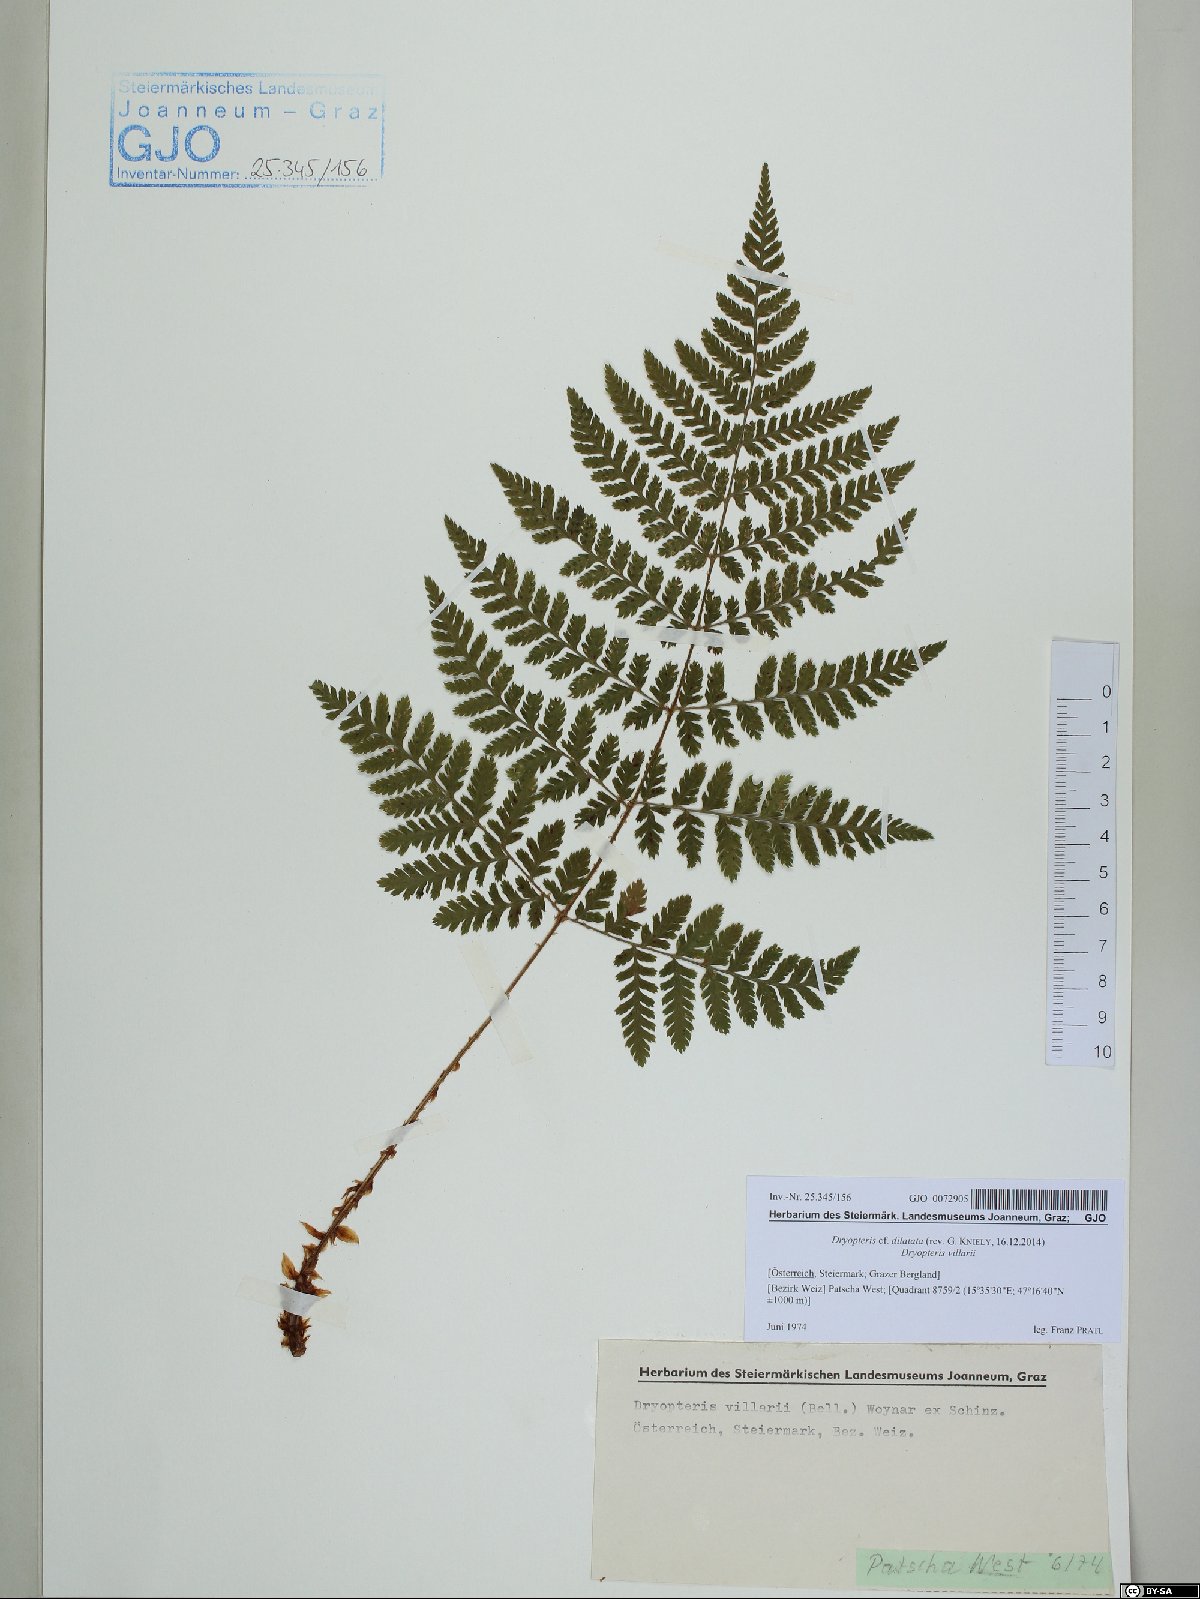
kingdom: Plantae
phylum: Tracheophyta
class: Polypodiopsida
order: Polypodiales
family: Dryopteridaceae
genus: Dryopteris
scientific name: Dryopteris dilatata
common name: Broad buckler-fern
